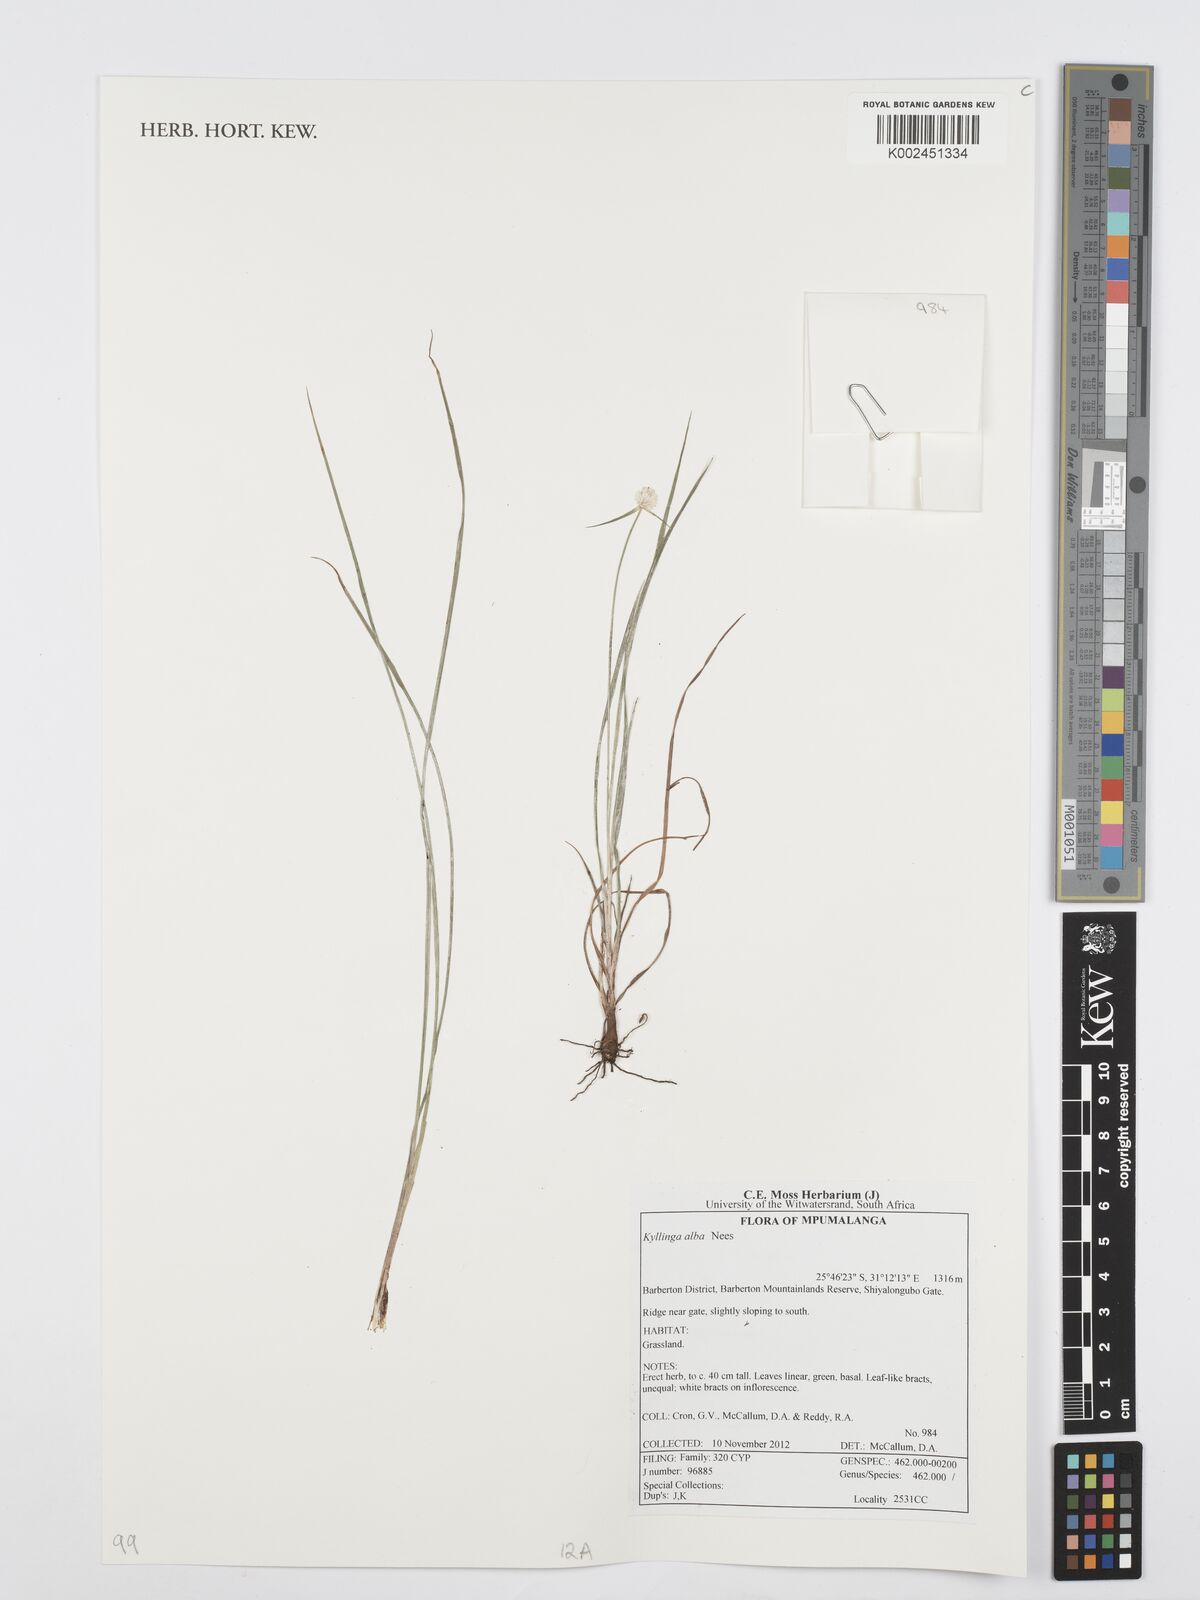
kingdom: Plantae
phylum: Tracheophyta
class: Liliopsida
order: Poales
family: Cyperaceae
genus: Cyperus
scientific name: Cyperus
